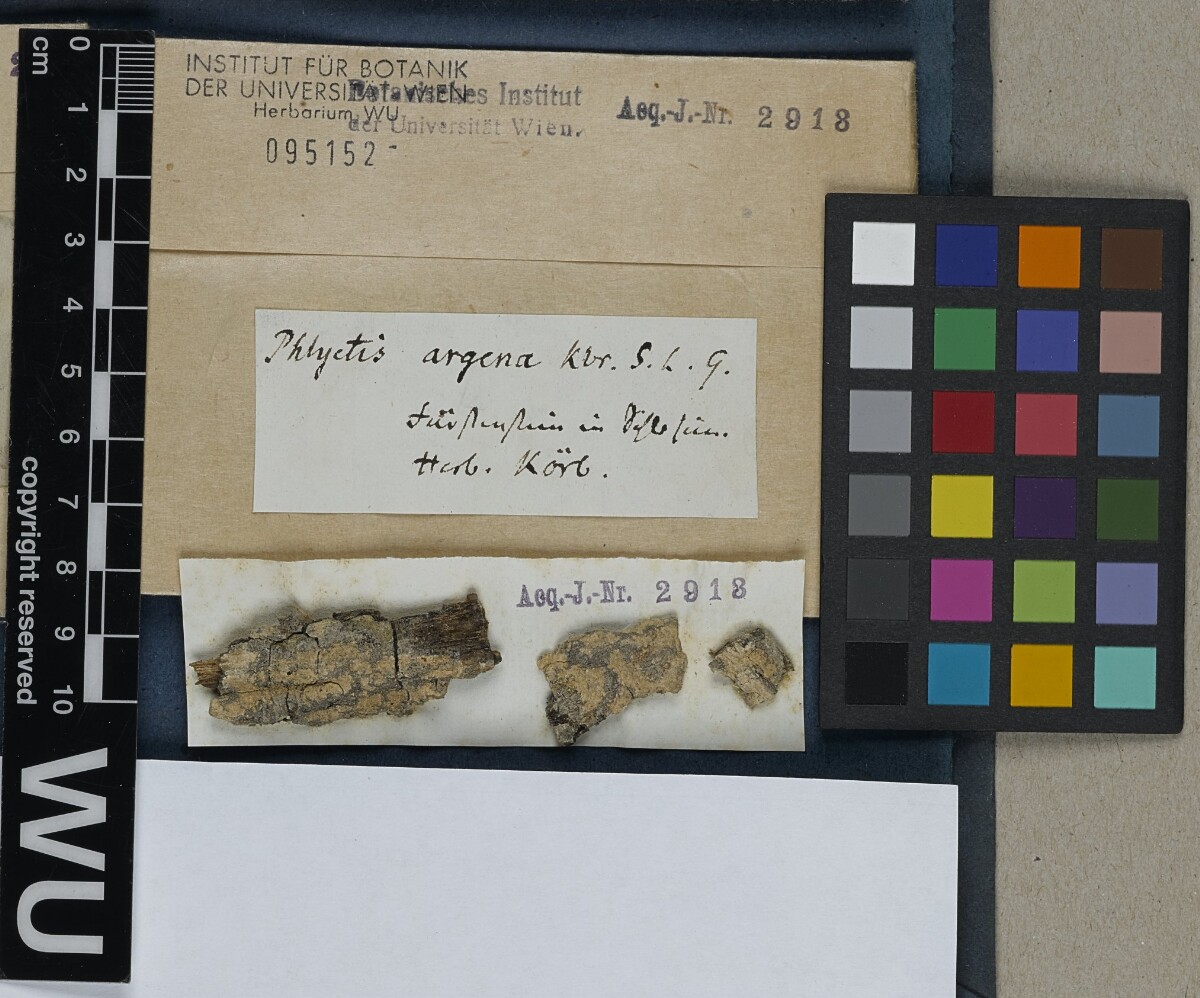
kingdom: Fungi
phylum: Ascomycota
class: Lecanoromycetes
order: Ostropales
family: Phlyctidaceae
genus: Phlyctis
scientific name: Phlyctis argena
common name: Whitewash lichen
